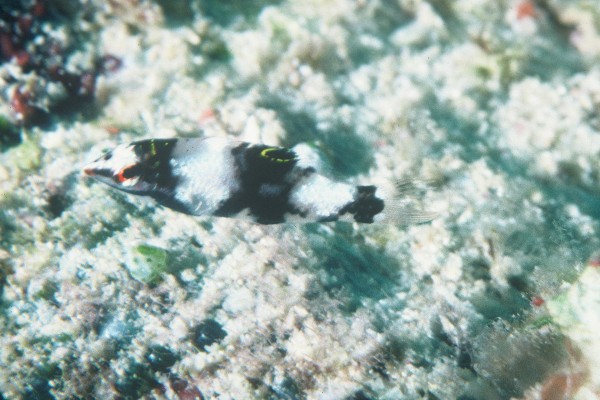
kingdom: Animalia
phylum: Chordata
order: Perciformes
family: Labridae
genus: Halichoeres
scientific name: Halichoeres hortulanus
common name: Checkerboard wrasse
